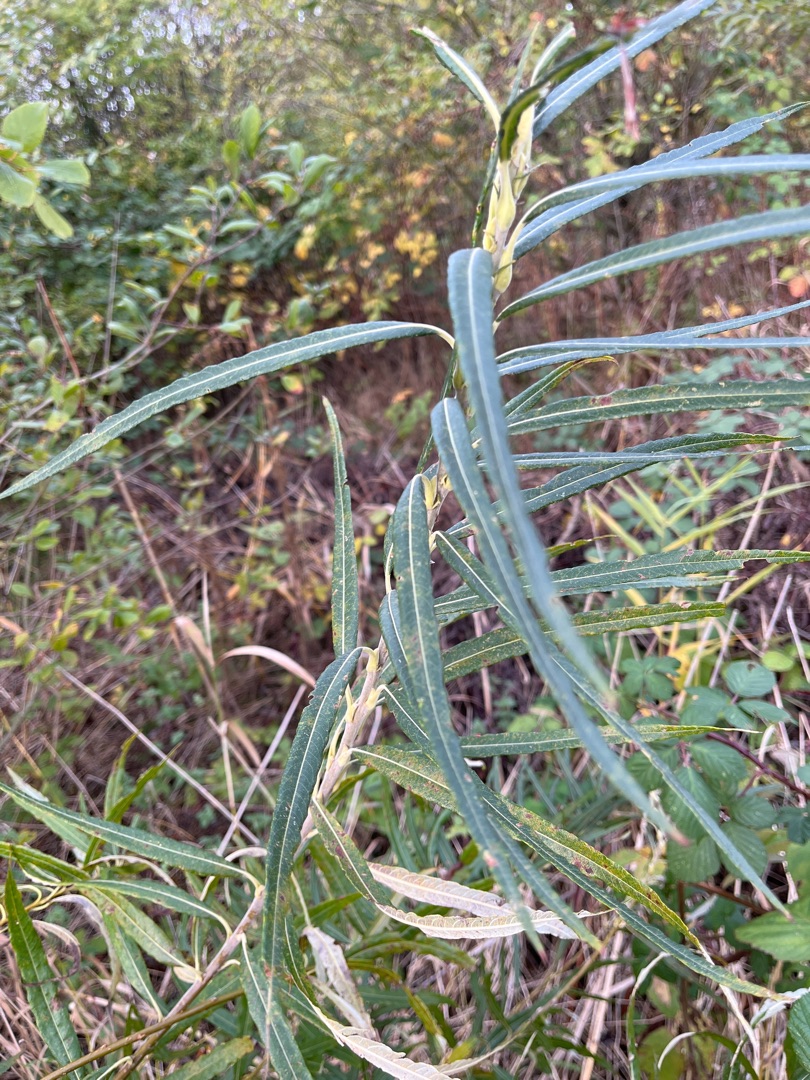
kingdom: Plantae
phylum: Tracheophyta
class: Magnoliopsida
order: Malpighiales
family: Salicaceae
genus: Salix
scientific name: Salix viminalis
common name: Bånd-pil
